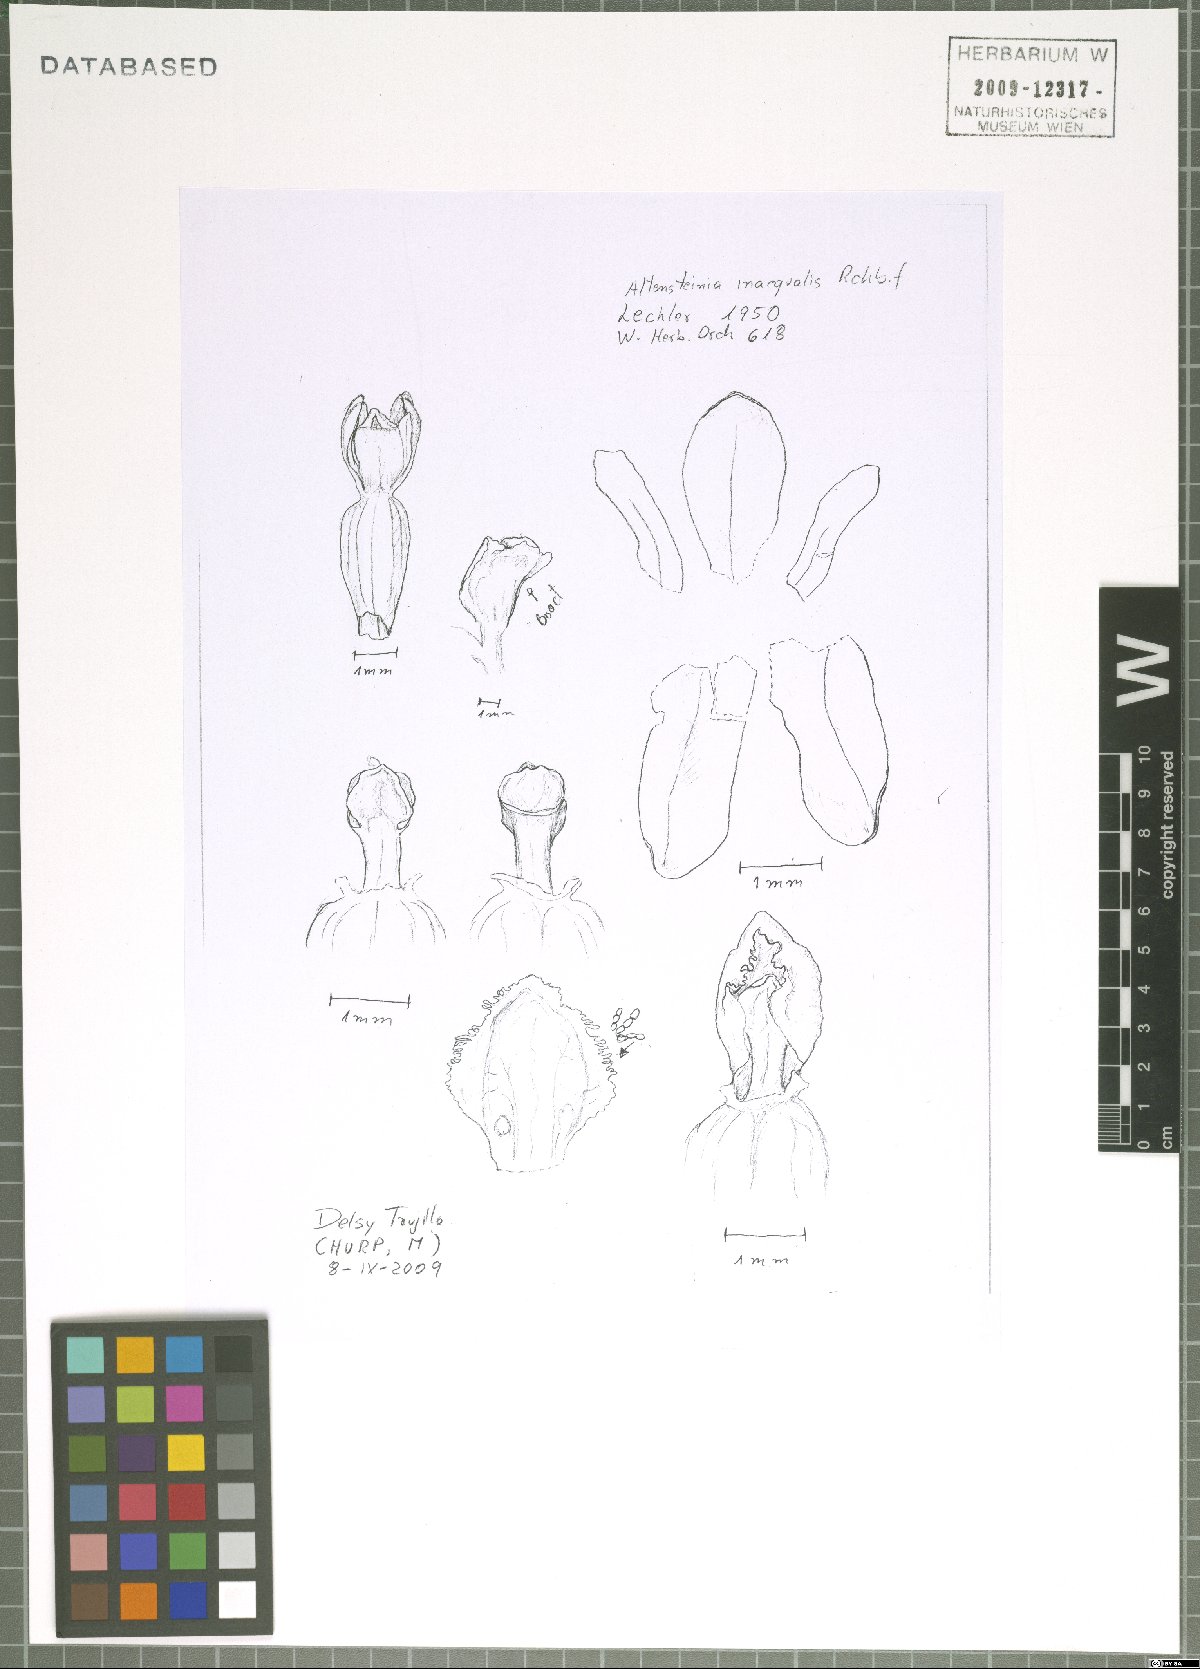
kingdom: Plantae
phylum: Tracheophyta
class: Liliopsida
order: Asparagales
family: Orchidaceae
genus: Myrosmodes
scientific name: Myrosmodes paludosa
